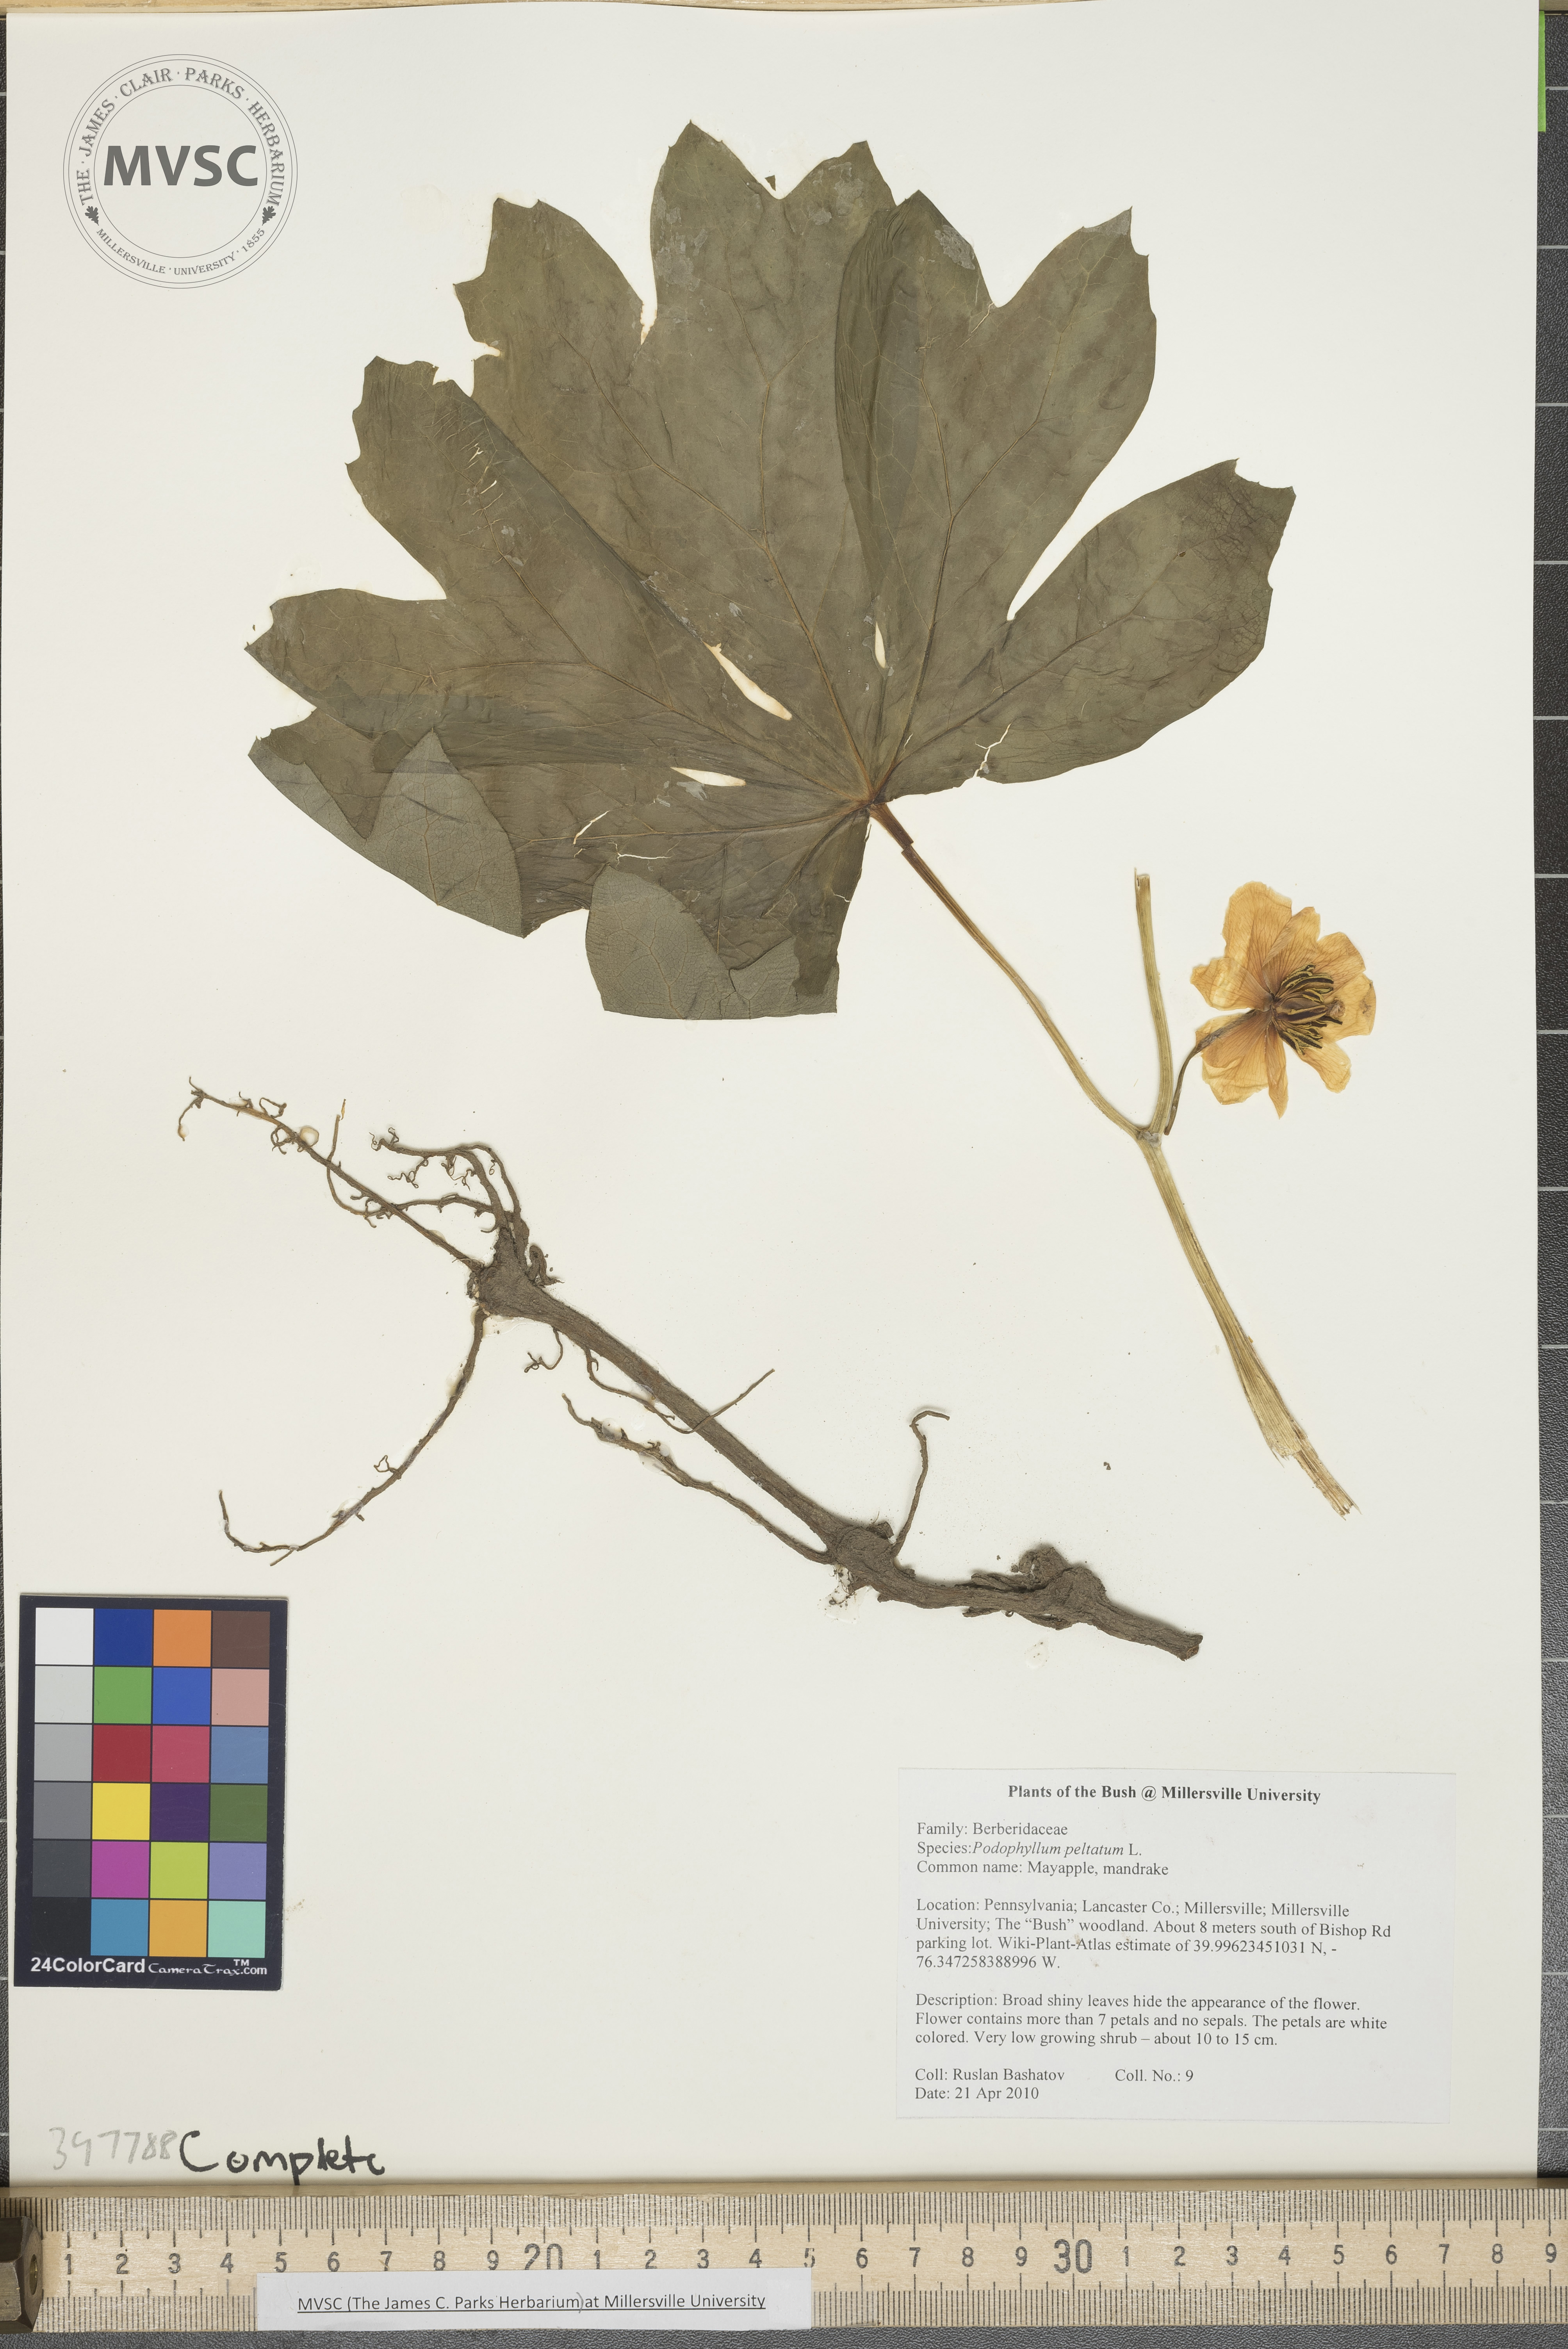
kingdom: Plantae
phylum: Tracheophyta
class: Magnoliopsida
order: Ranunculales
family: Berberidaceae
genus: Podophyllum
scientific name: Podophyllum peltatum
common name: Mayapple
